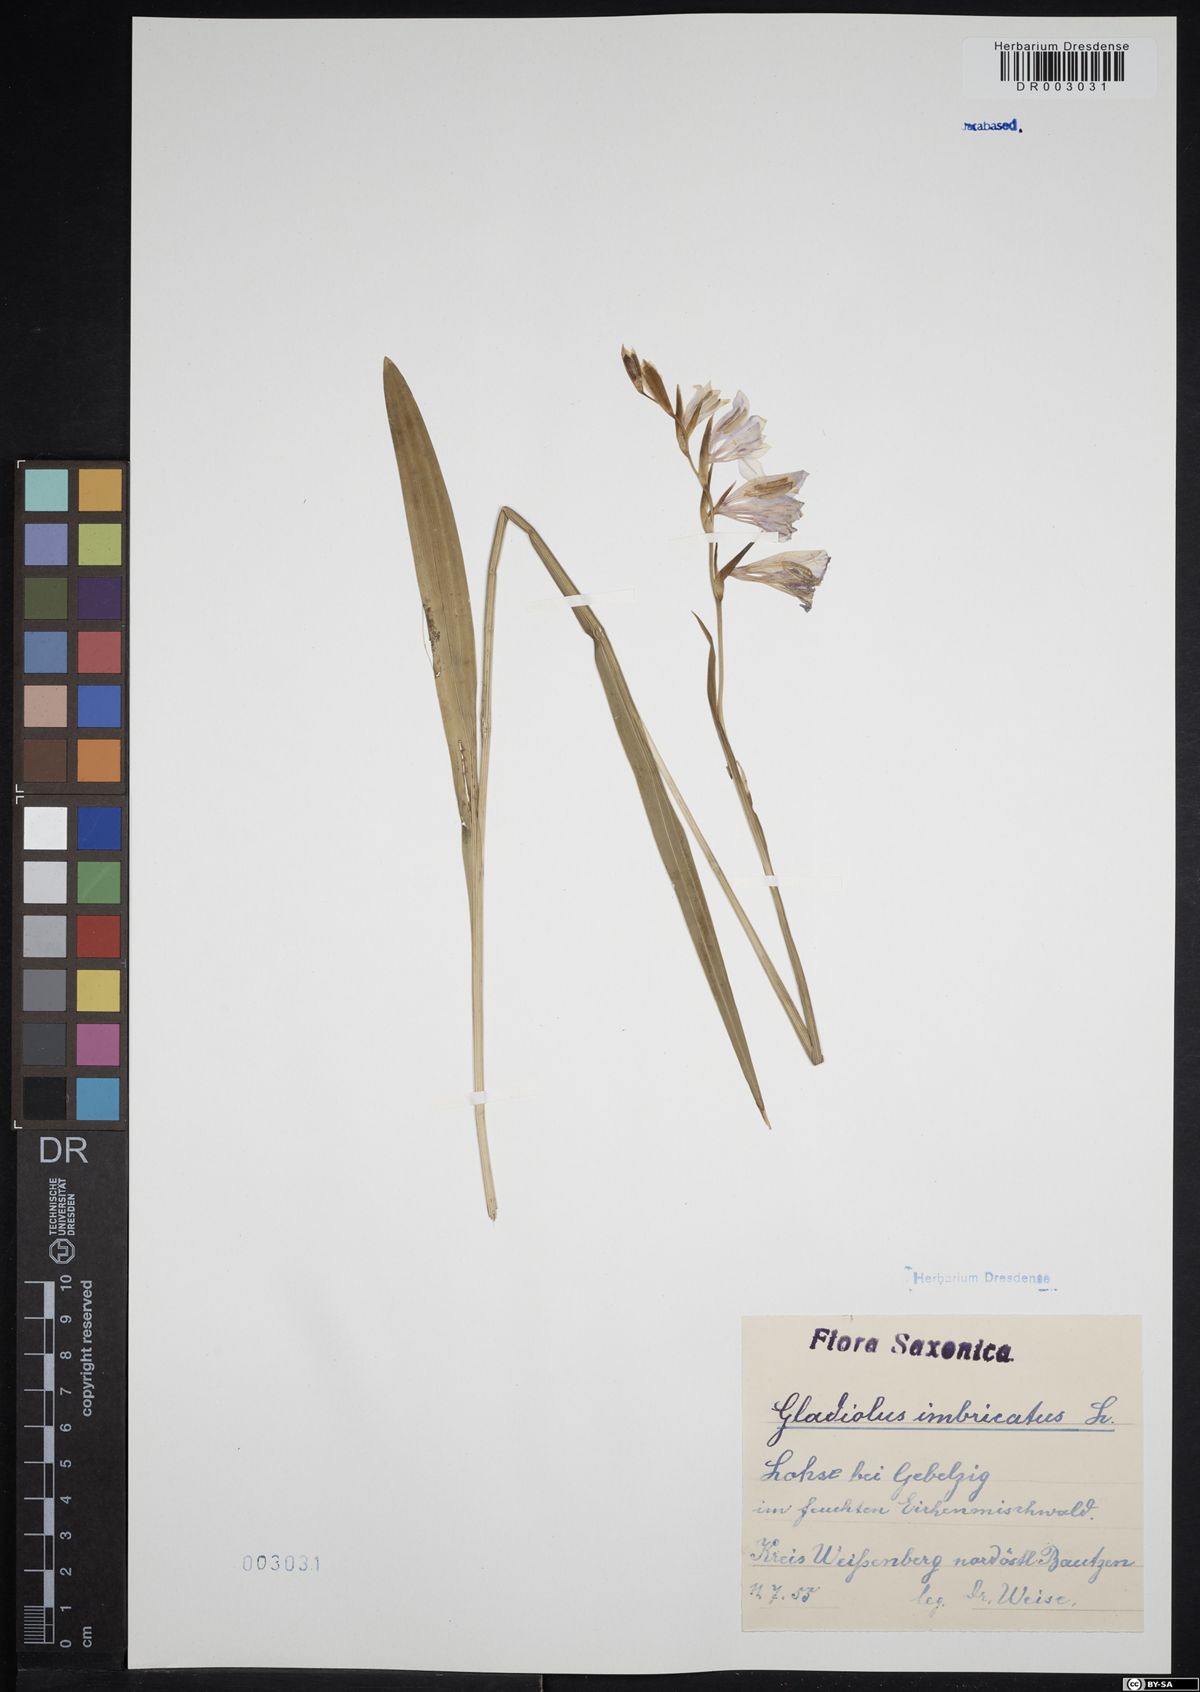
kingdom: Plantae
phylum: Tracheophyta
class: Liliopsida
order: Asparagales
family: Iridaceae
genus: Gladiolus
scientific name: Gladiolus imbricatus
